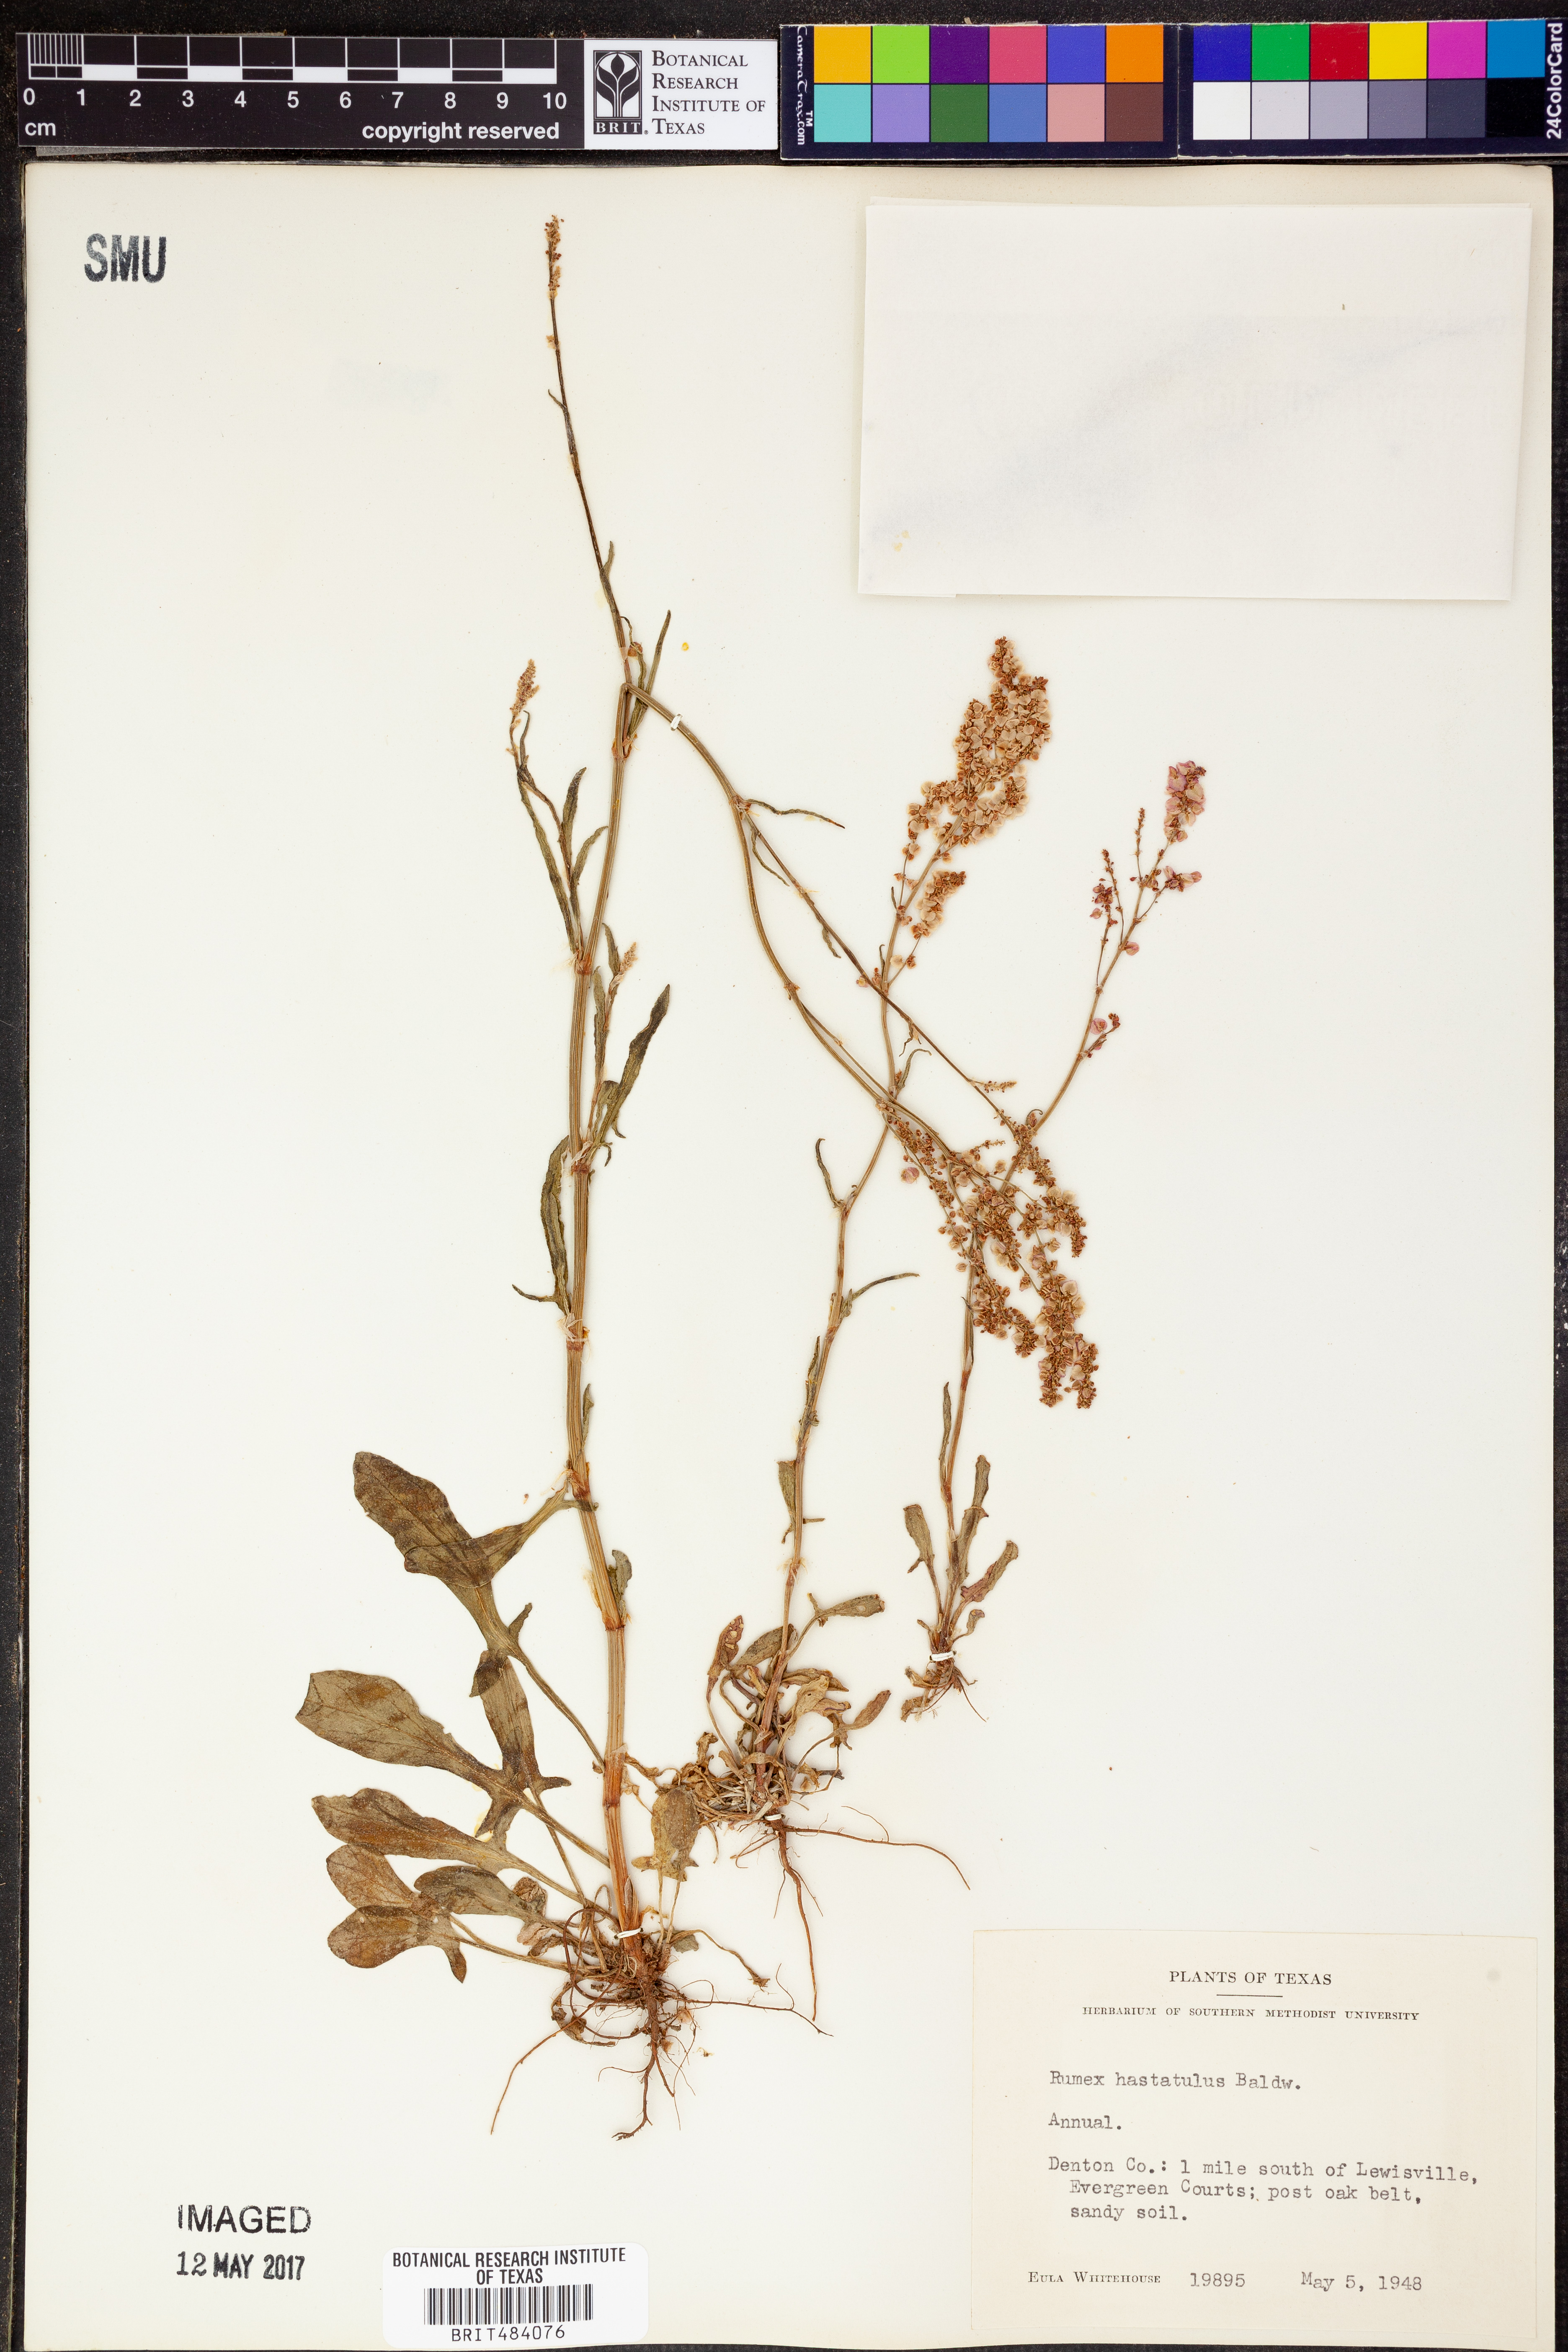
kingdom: Plantae
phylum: Tracheophyta
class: Magnoliopsida
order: Caryophyllales
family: Polygonaceae
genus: Rumex
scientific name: Rumex hastatulus
